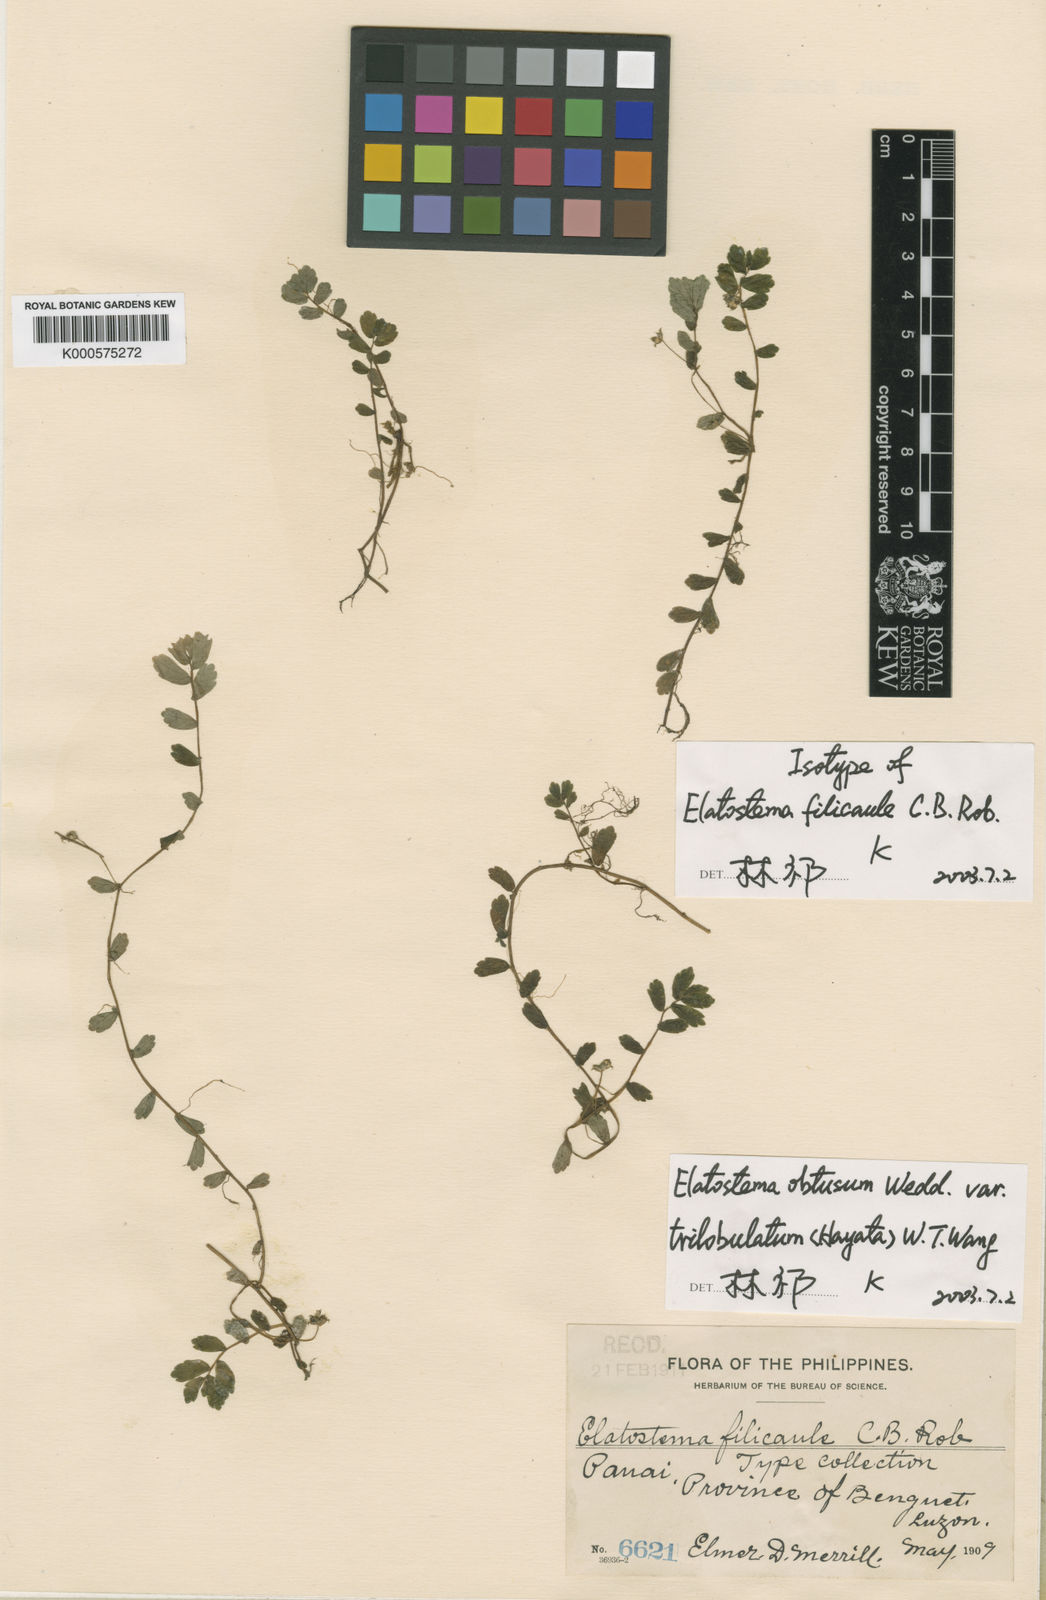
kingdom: Plantae
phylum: Tracheophyta
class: Magnoliopsida
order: Rosales
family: Urticaceae
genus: Elatostema
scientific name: Elatostema obtusum
